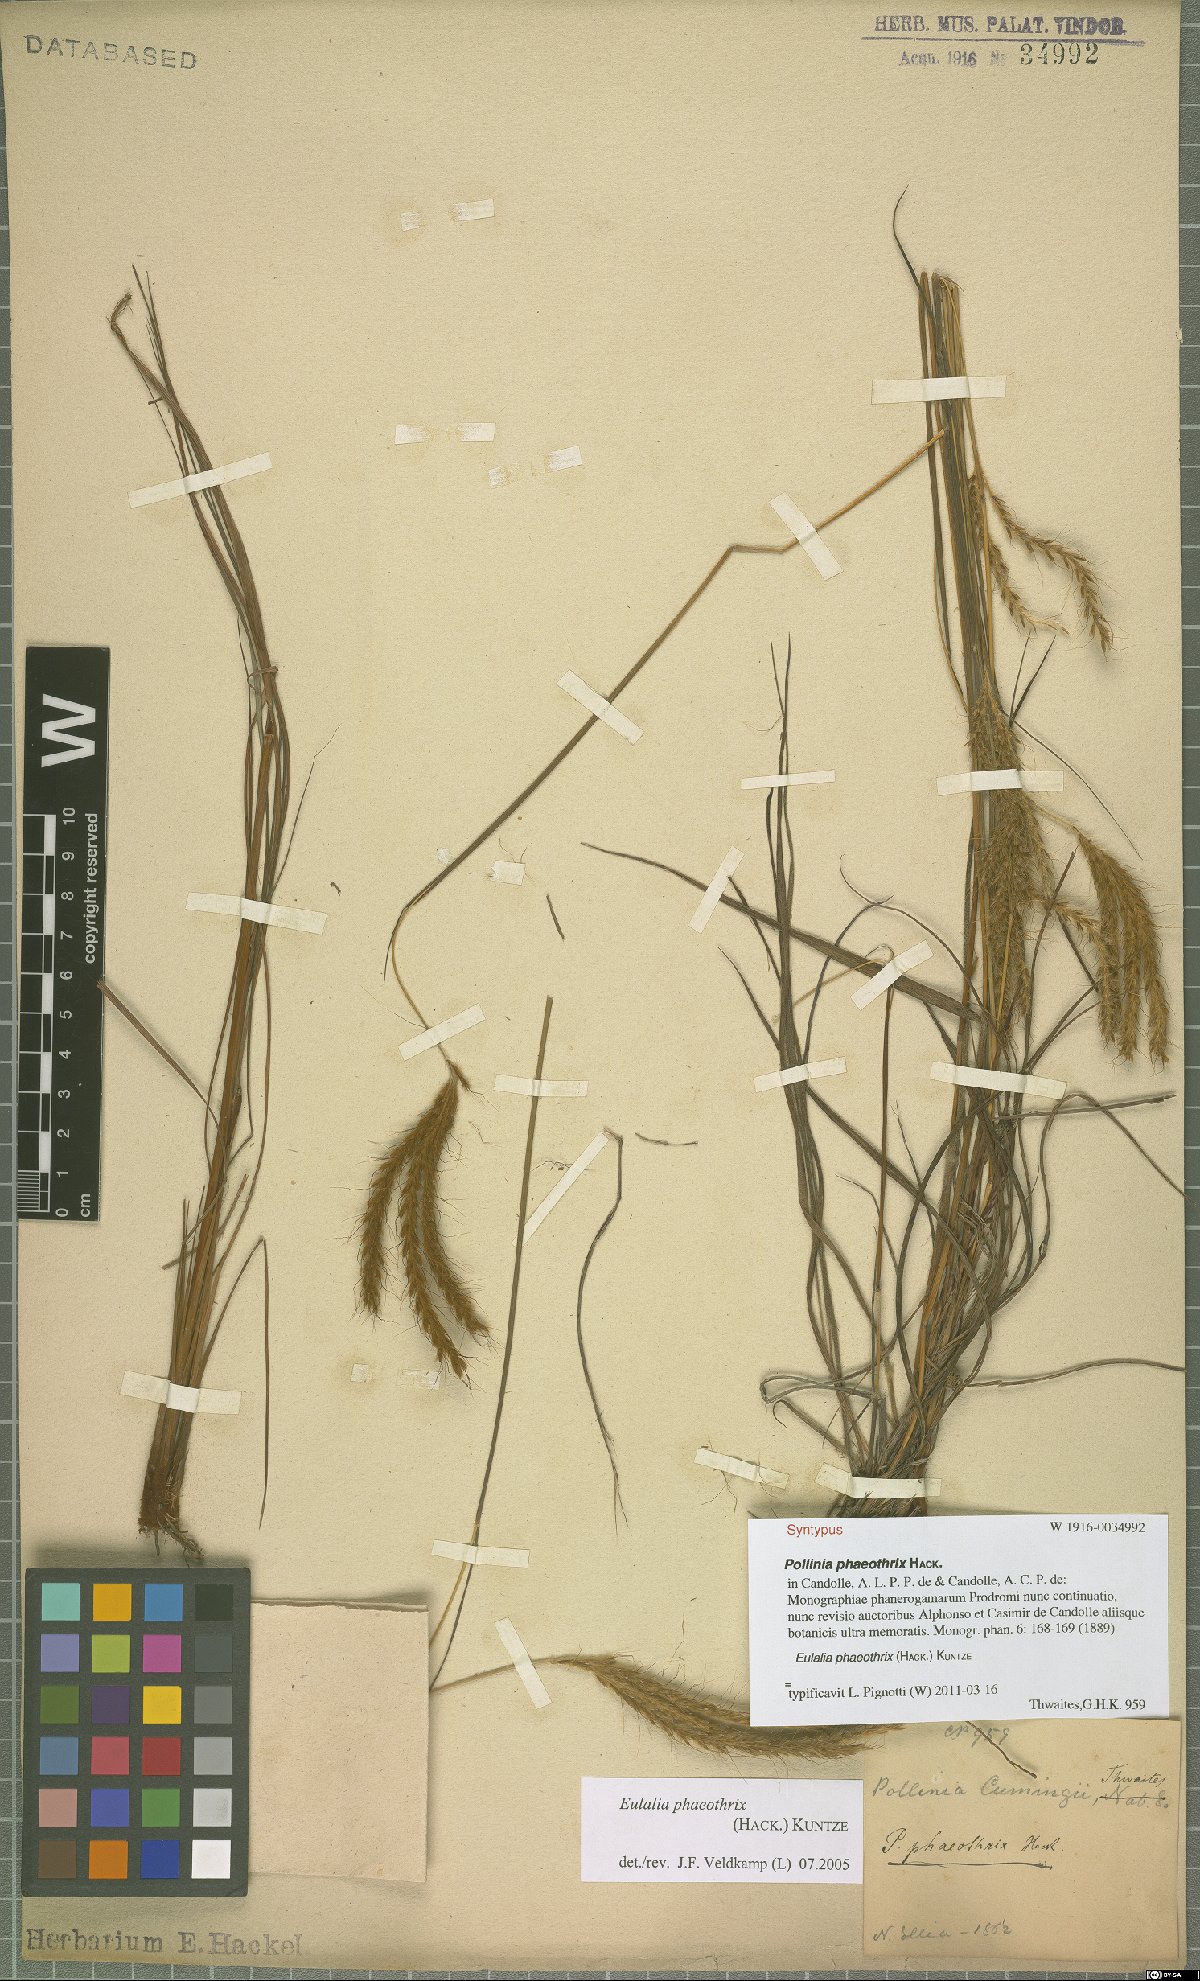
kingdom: Plantae
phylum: Tracheophyta
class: Liliopsida
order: Poales
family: Poaceae
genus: Eulalia
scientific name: Eulalia phaeothrix
